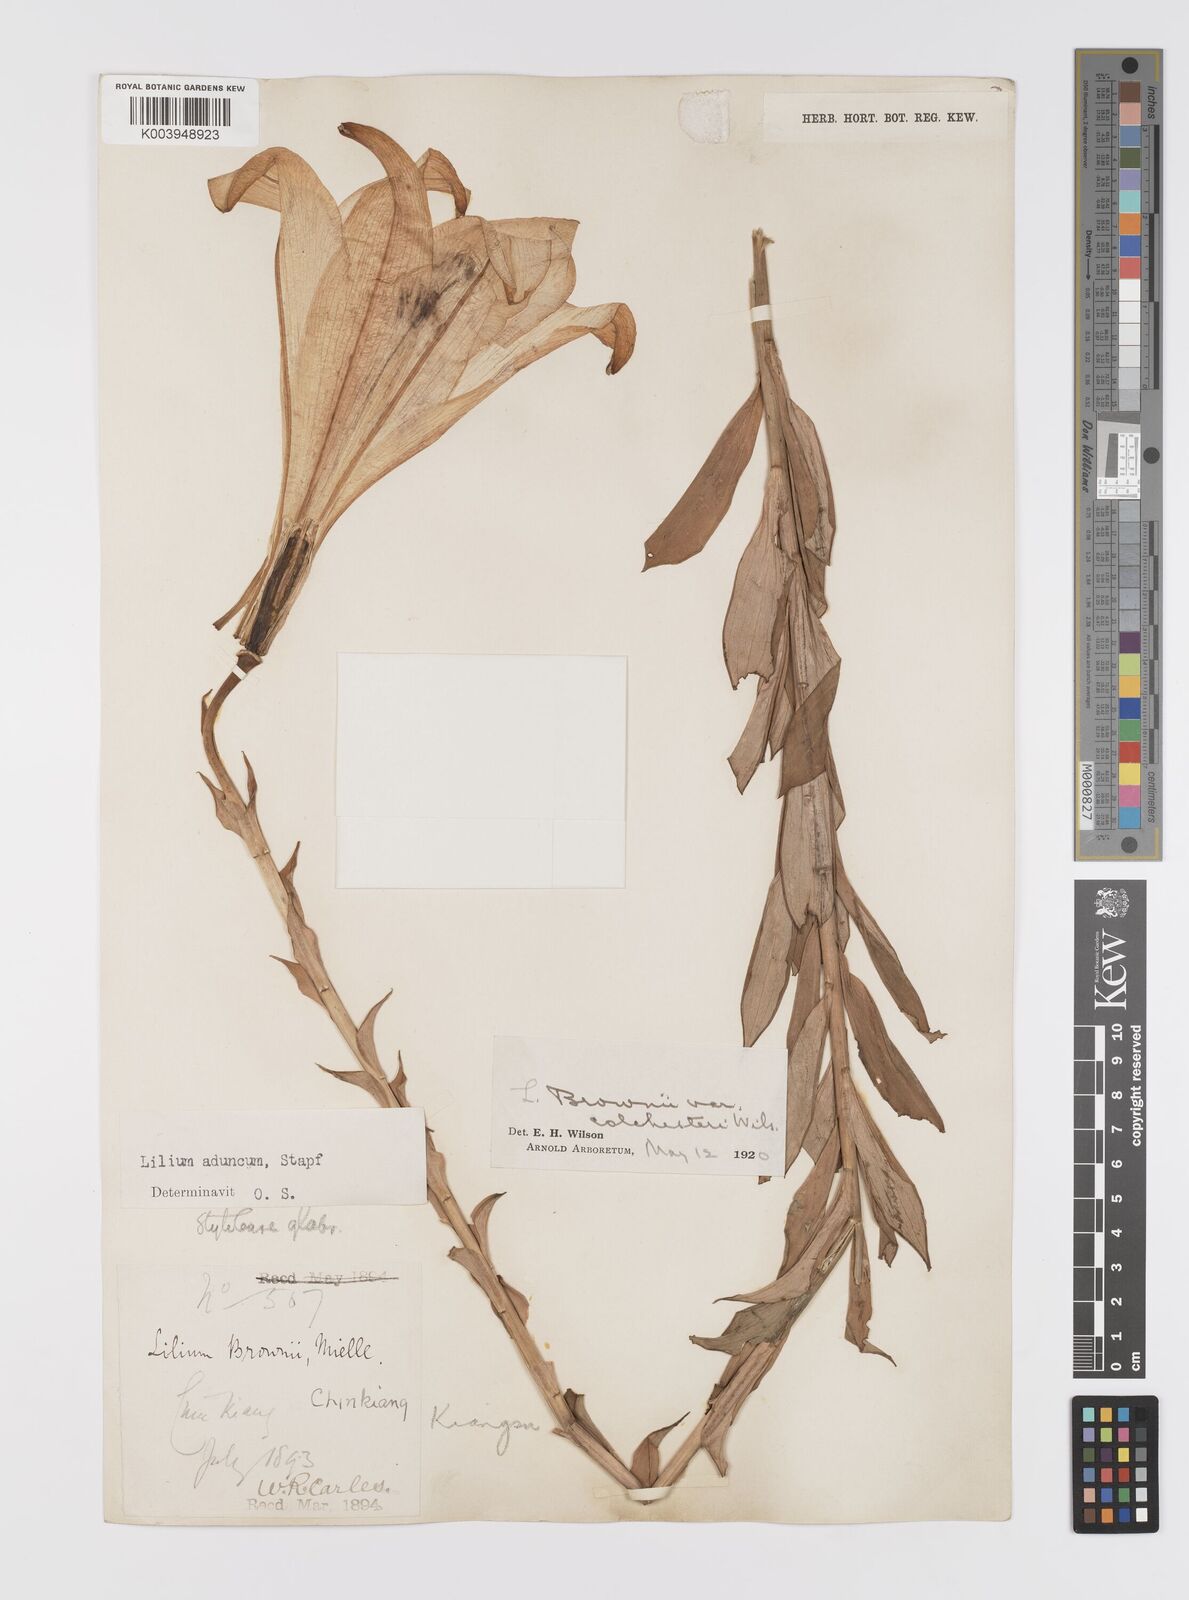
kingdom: Plantae
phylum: Tracheophyta
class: Liliopsida
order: Liliales
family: Liliaceae
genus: Lilium
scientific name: Lilium brownii
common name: Brown's lily
